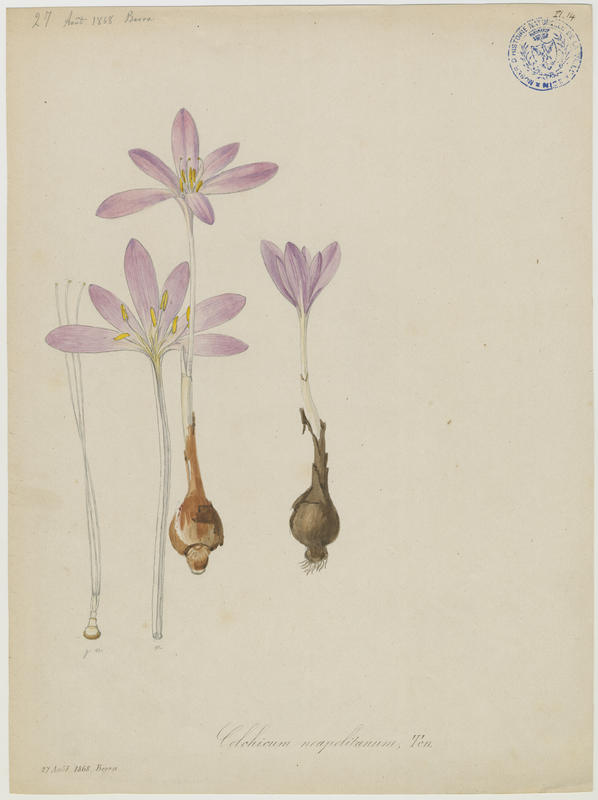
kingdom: Plantae
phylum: Tracheophyta
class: Liliopsida
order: Liliales
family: Colchicaceae
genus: Colchicum
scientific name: Colchicum parnassicum
